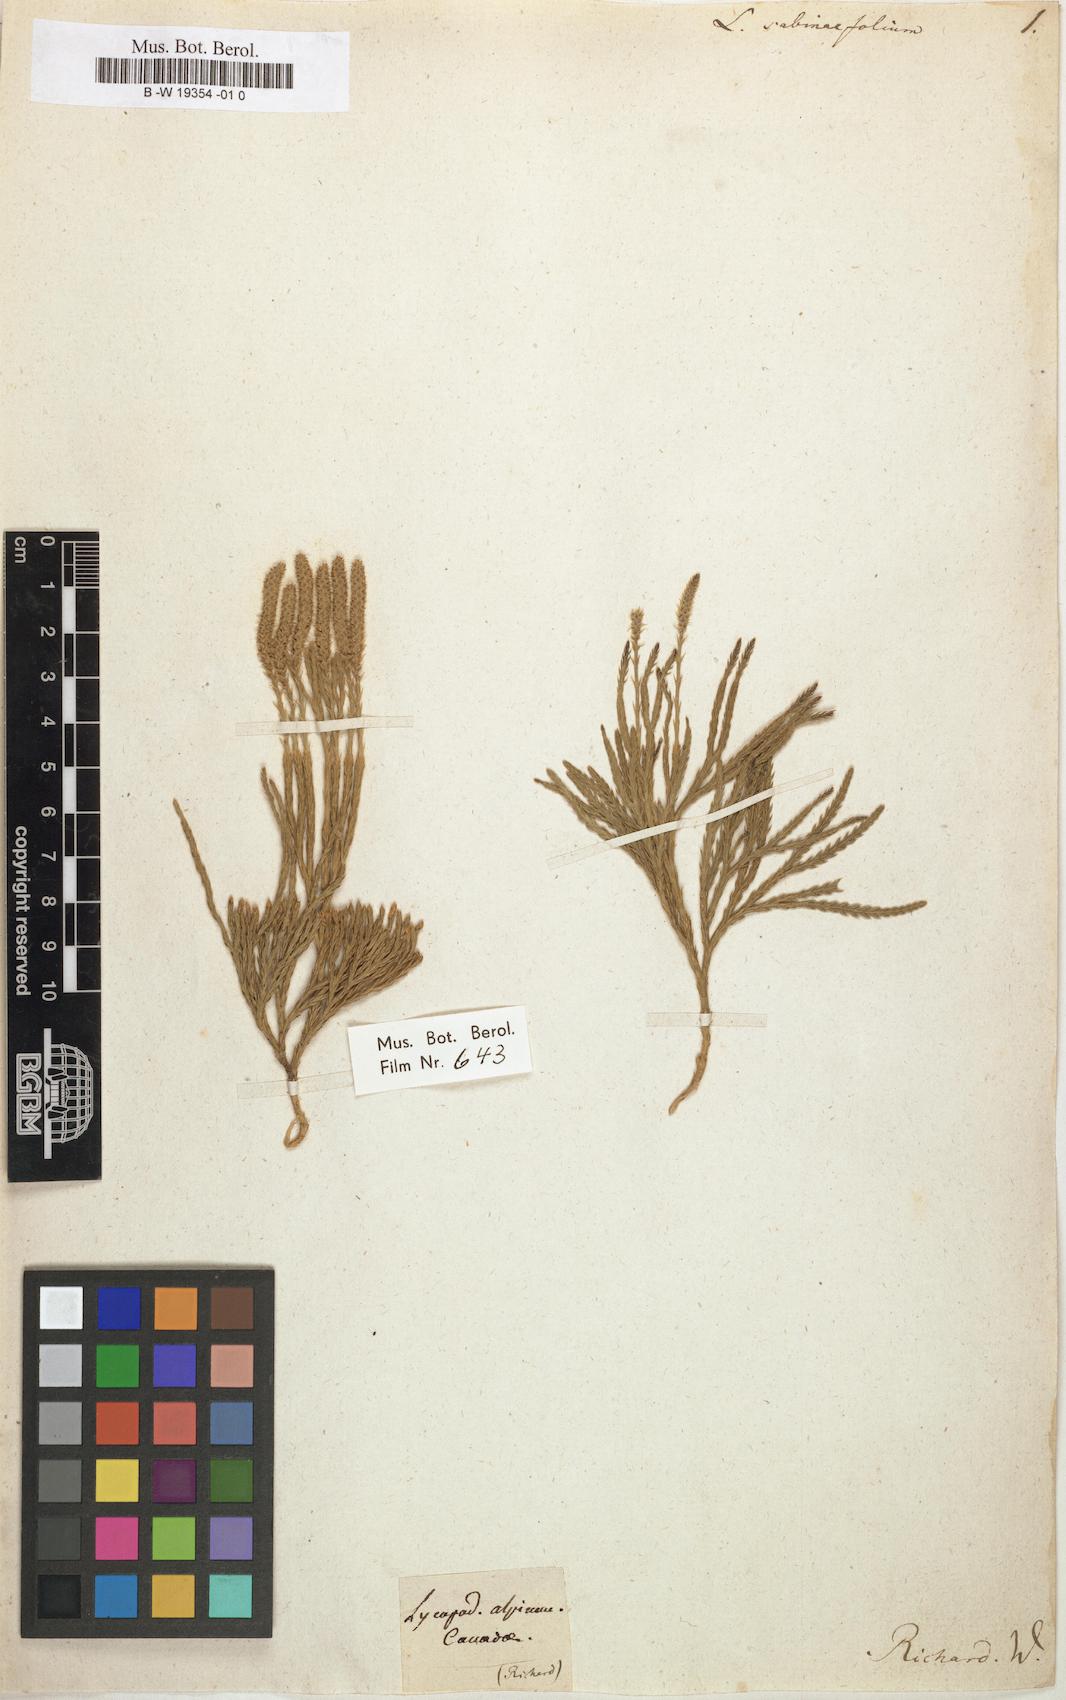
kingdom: Plantae
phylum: Tracheophyta
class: Lycopodiopsida
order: Lycopodiales
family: Lycopodiaceae
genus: Lycopodium
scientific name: Lycopodium sabinaefolium
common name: Savinleaf groundpine
